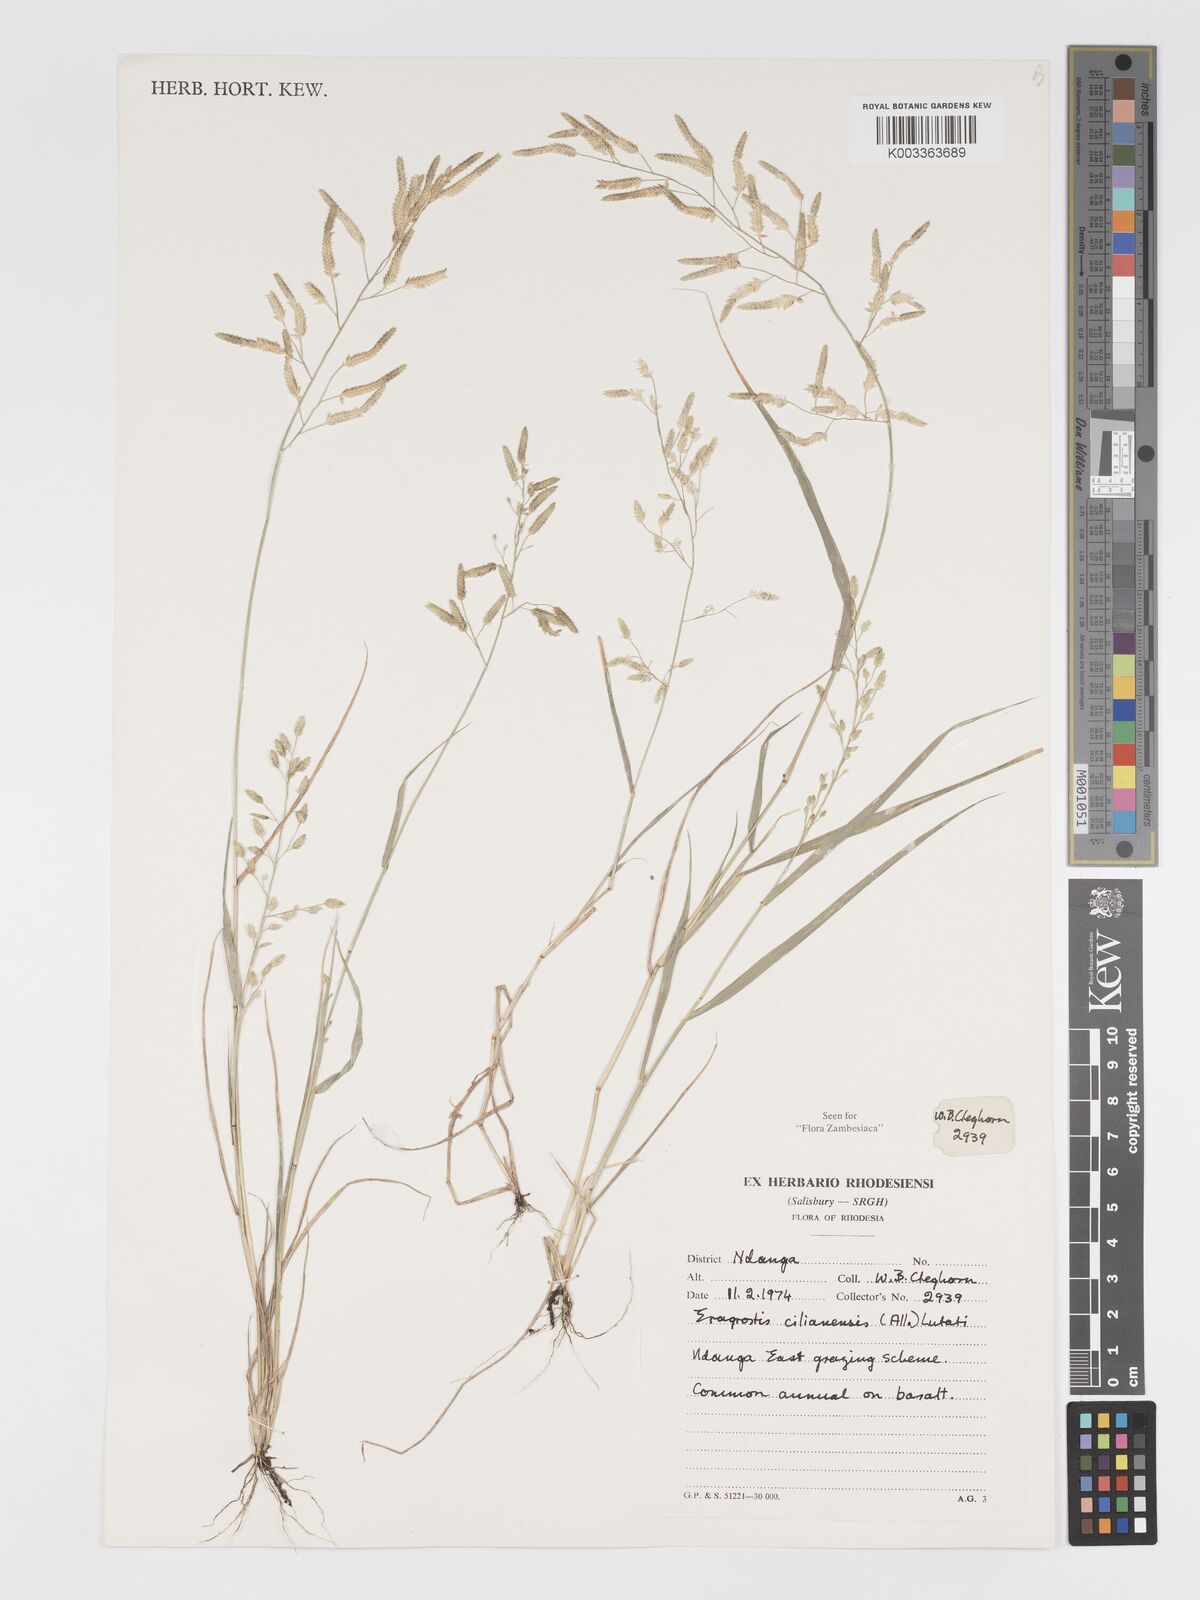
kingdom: Plantae
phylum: Tracheophyta
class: Liliopsida
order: Poales
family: Poaceae
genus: Eragrostis
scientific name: Eragrostis cilianensis
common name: Stinkgrass
